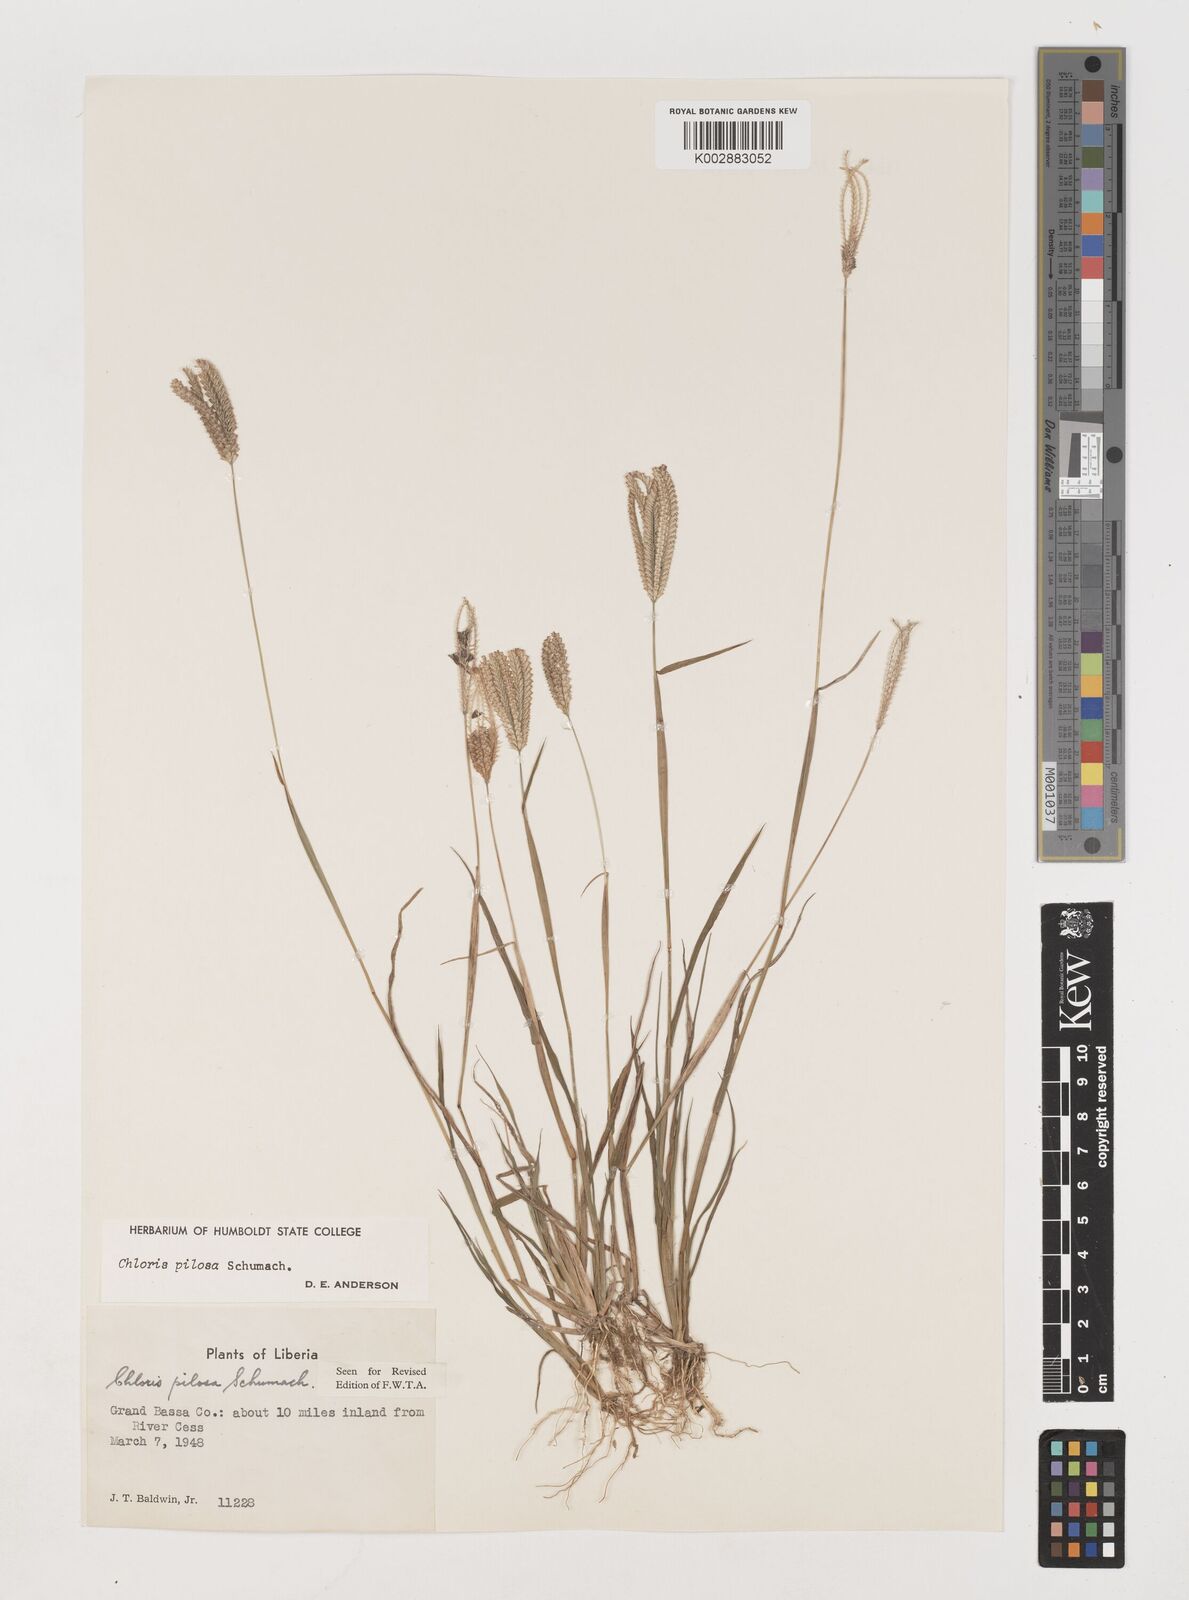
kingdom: Plantae
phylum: Tracheophyta
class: Liliopsida
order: Poales
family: Poaceae
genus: Chloris
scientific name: Chloris pilosa
